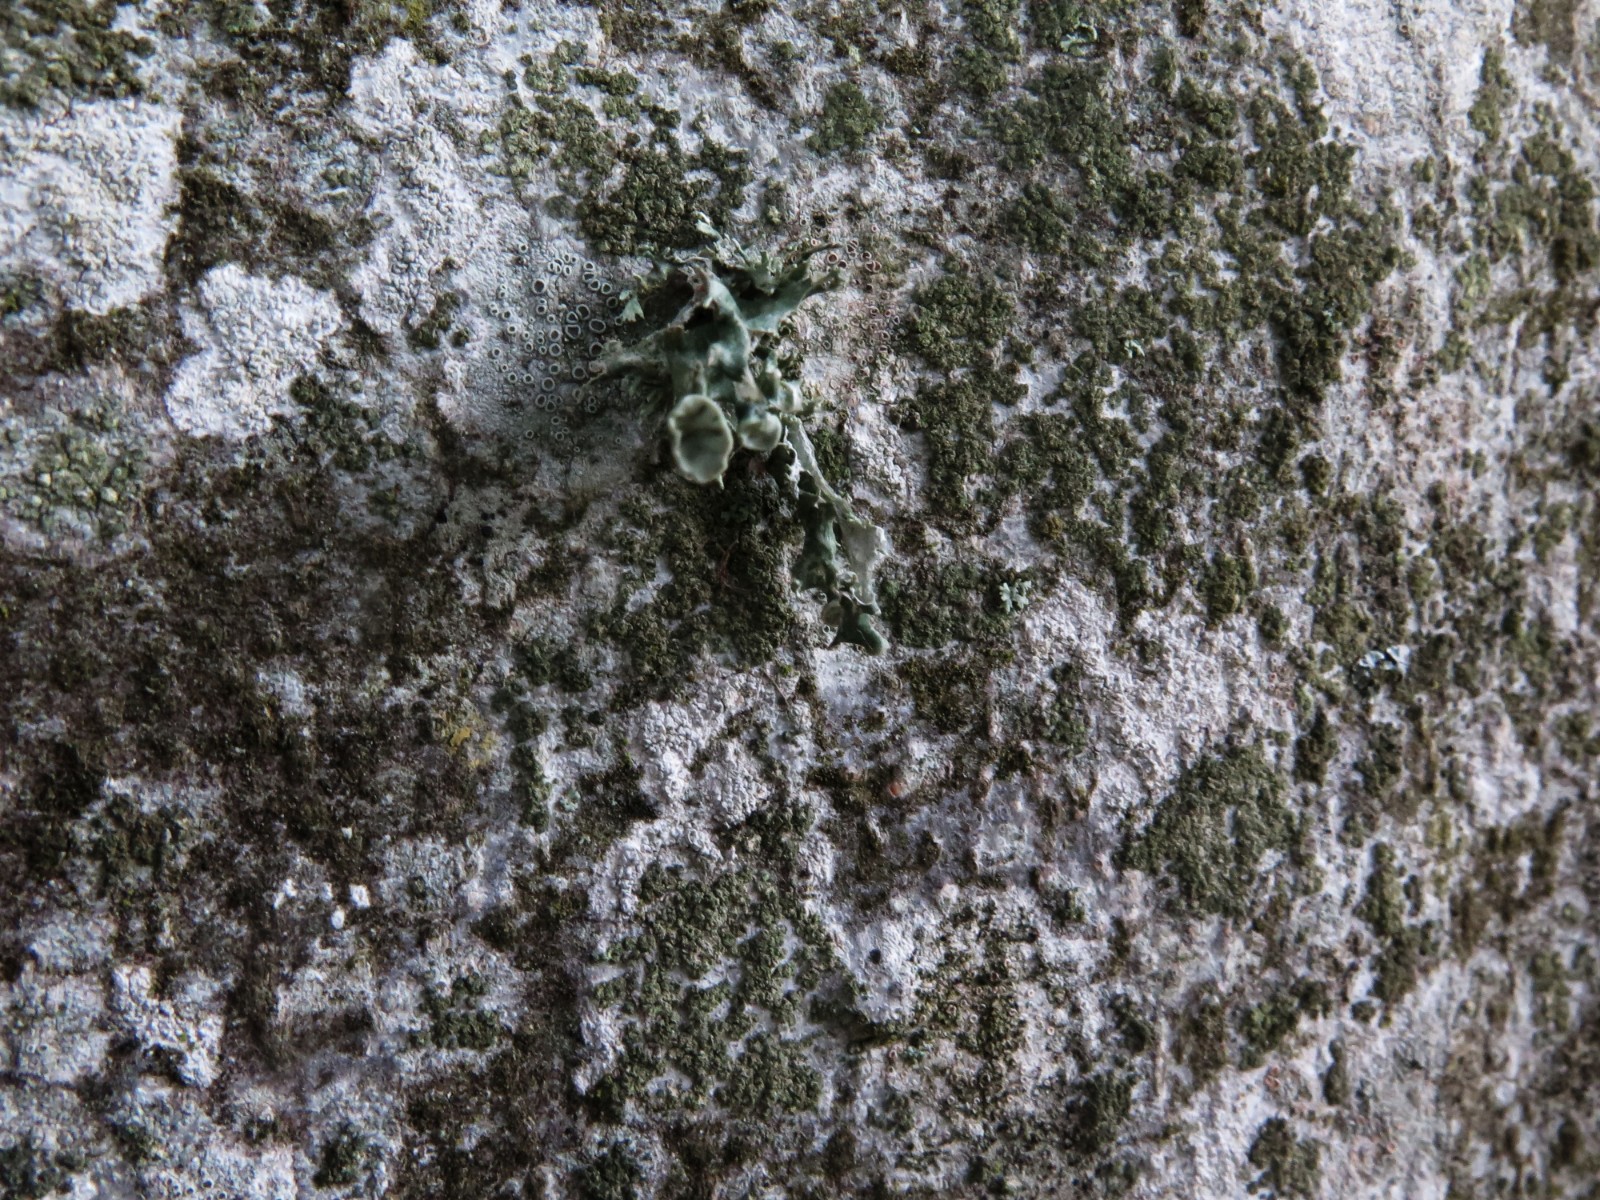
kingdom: Fungi
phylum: Ascomycota
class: Lecanoromycetes
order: Lecanorales
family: Ramalinaceae
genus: Ramalina
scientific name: Ramalina fastigiata
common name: tue-grenlav
